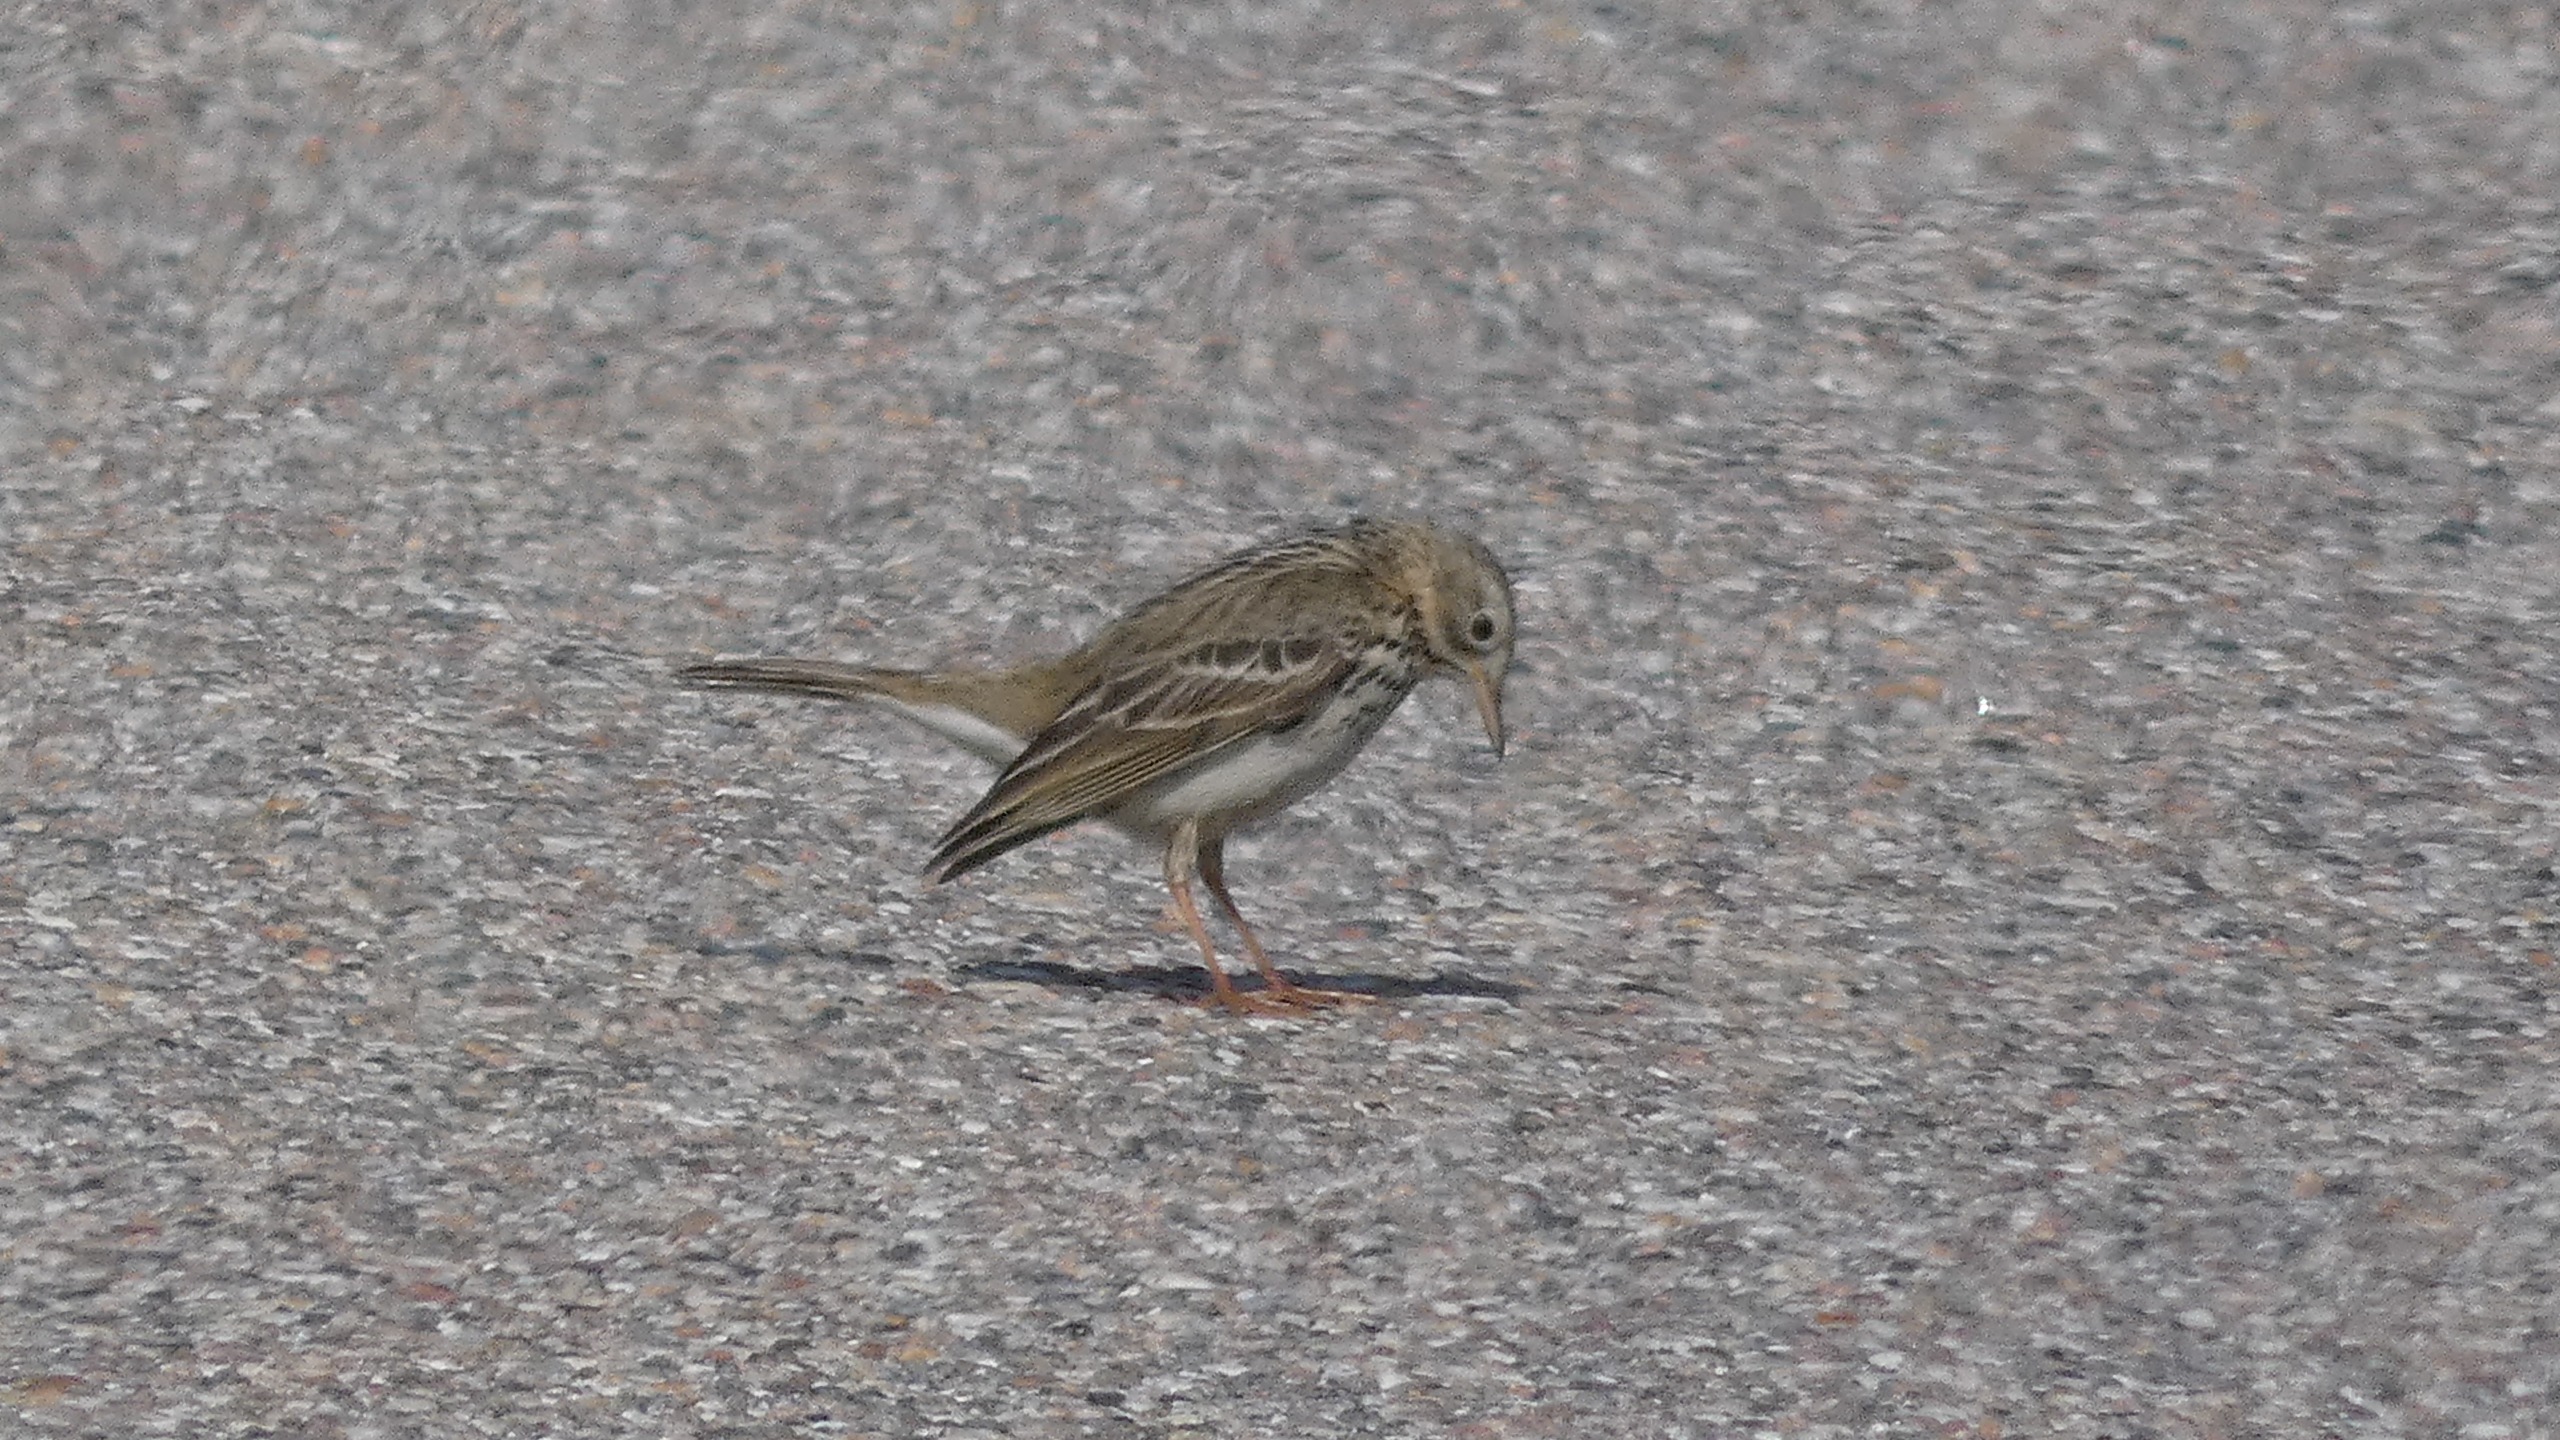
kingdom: Animalia
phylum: Chordata
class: Aves
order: Passeriformes
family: Motacillidae
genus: Anthus
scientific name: Anthus pratensis
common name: Engpiber
